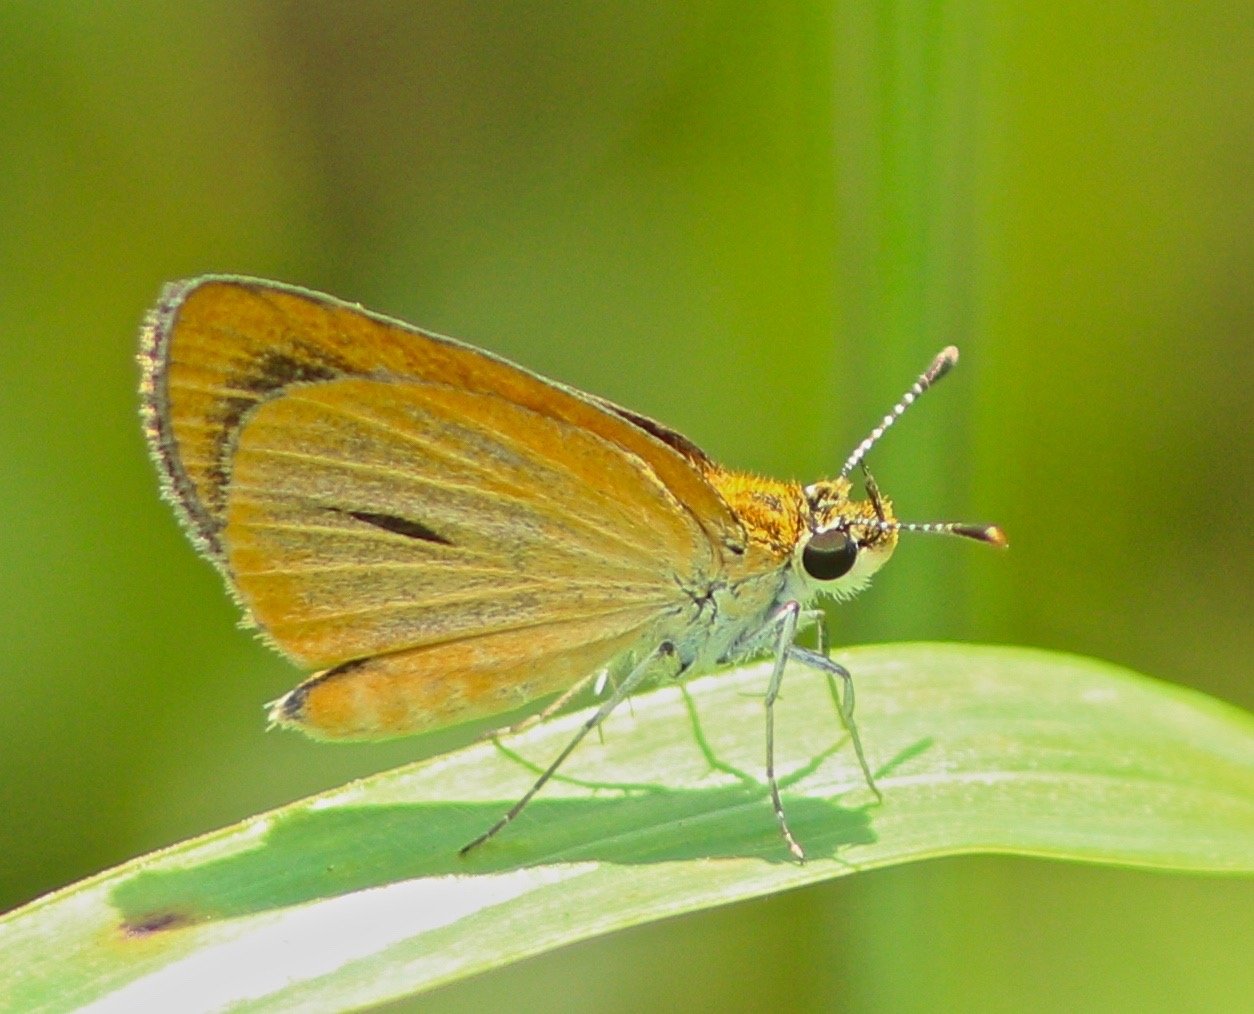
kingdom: Animalia
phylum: Arthropoda
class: Insecta
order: Lepidoptera
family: Hesperiidae
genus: Ancyloxypha
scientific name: Ancyloxypha numitor
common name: Least Skipper
